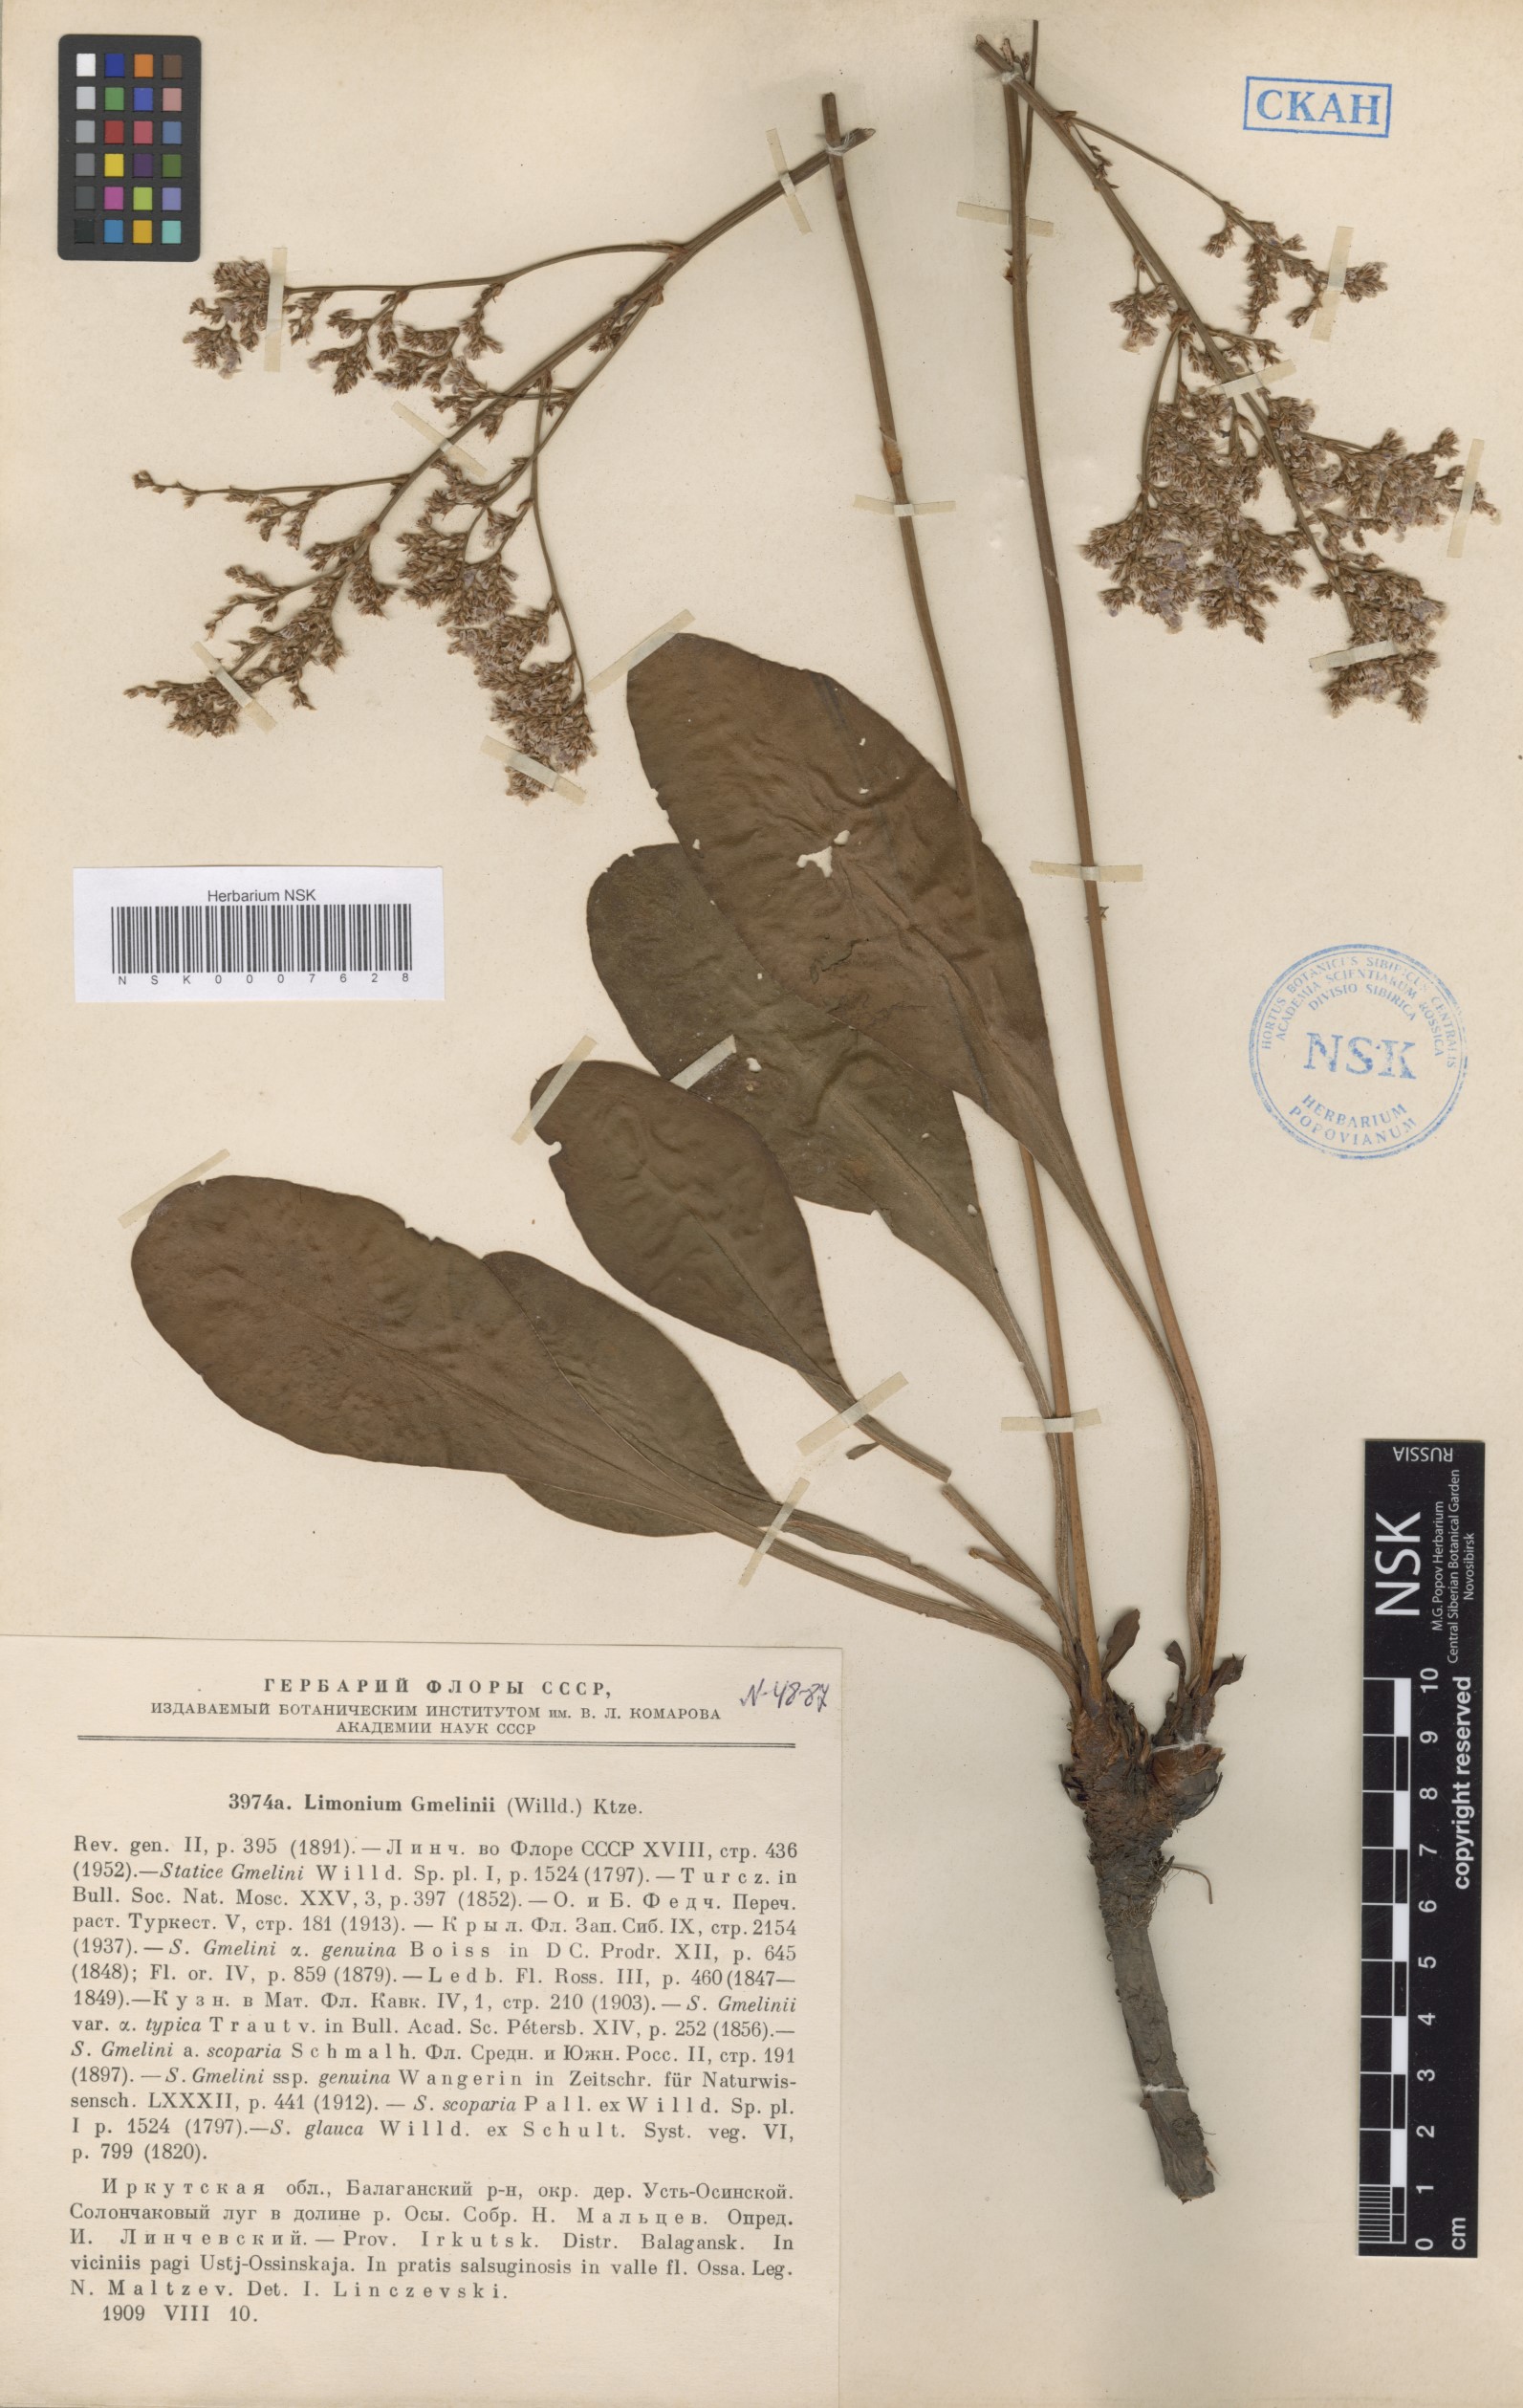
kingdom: Plantae
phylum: Tracheophyta
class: Magnoliopsida
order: Caryophyllales
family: Plumbaginaceae
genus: Limonium
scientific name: Limonium gmelini
